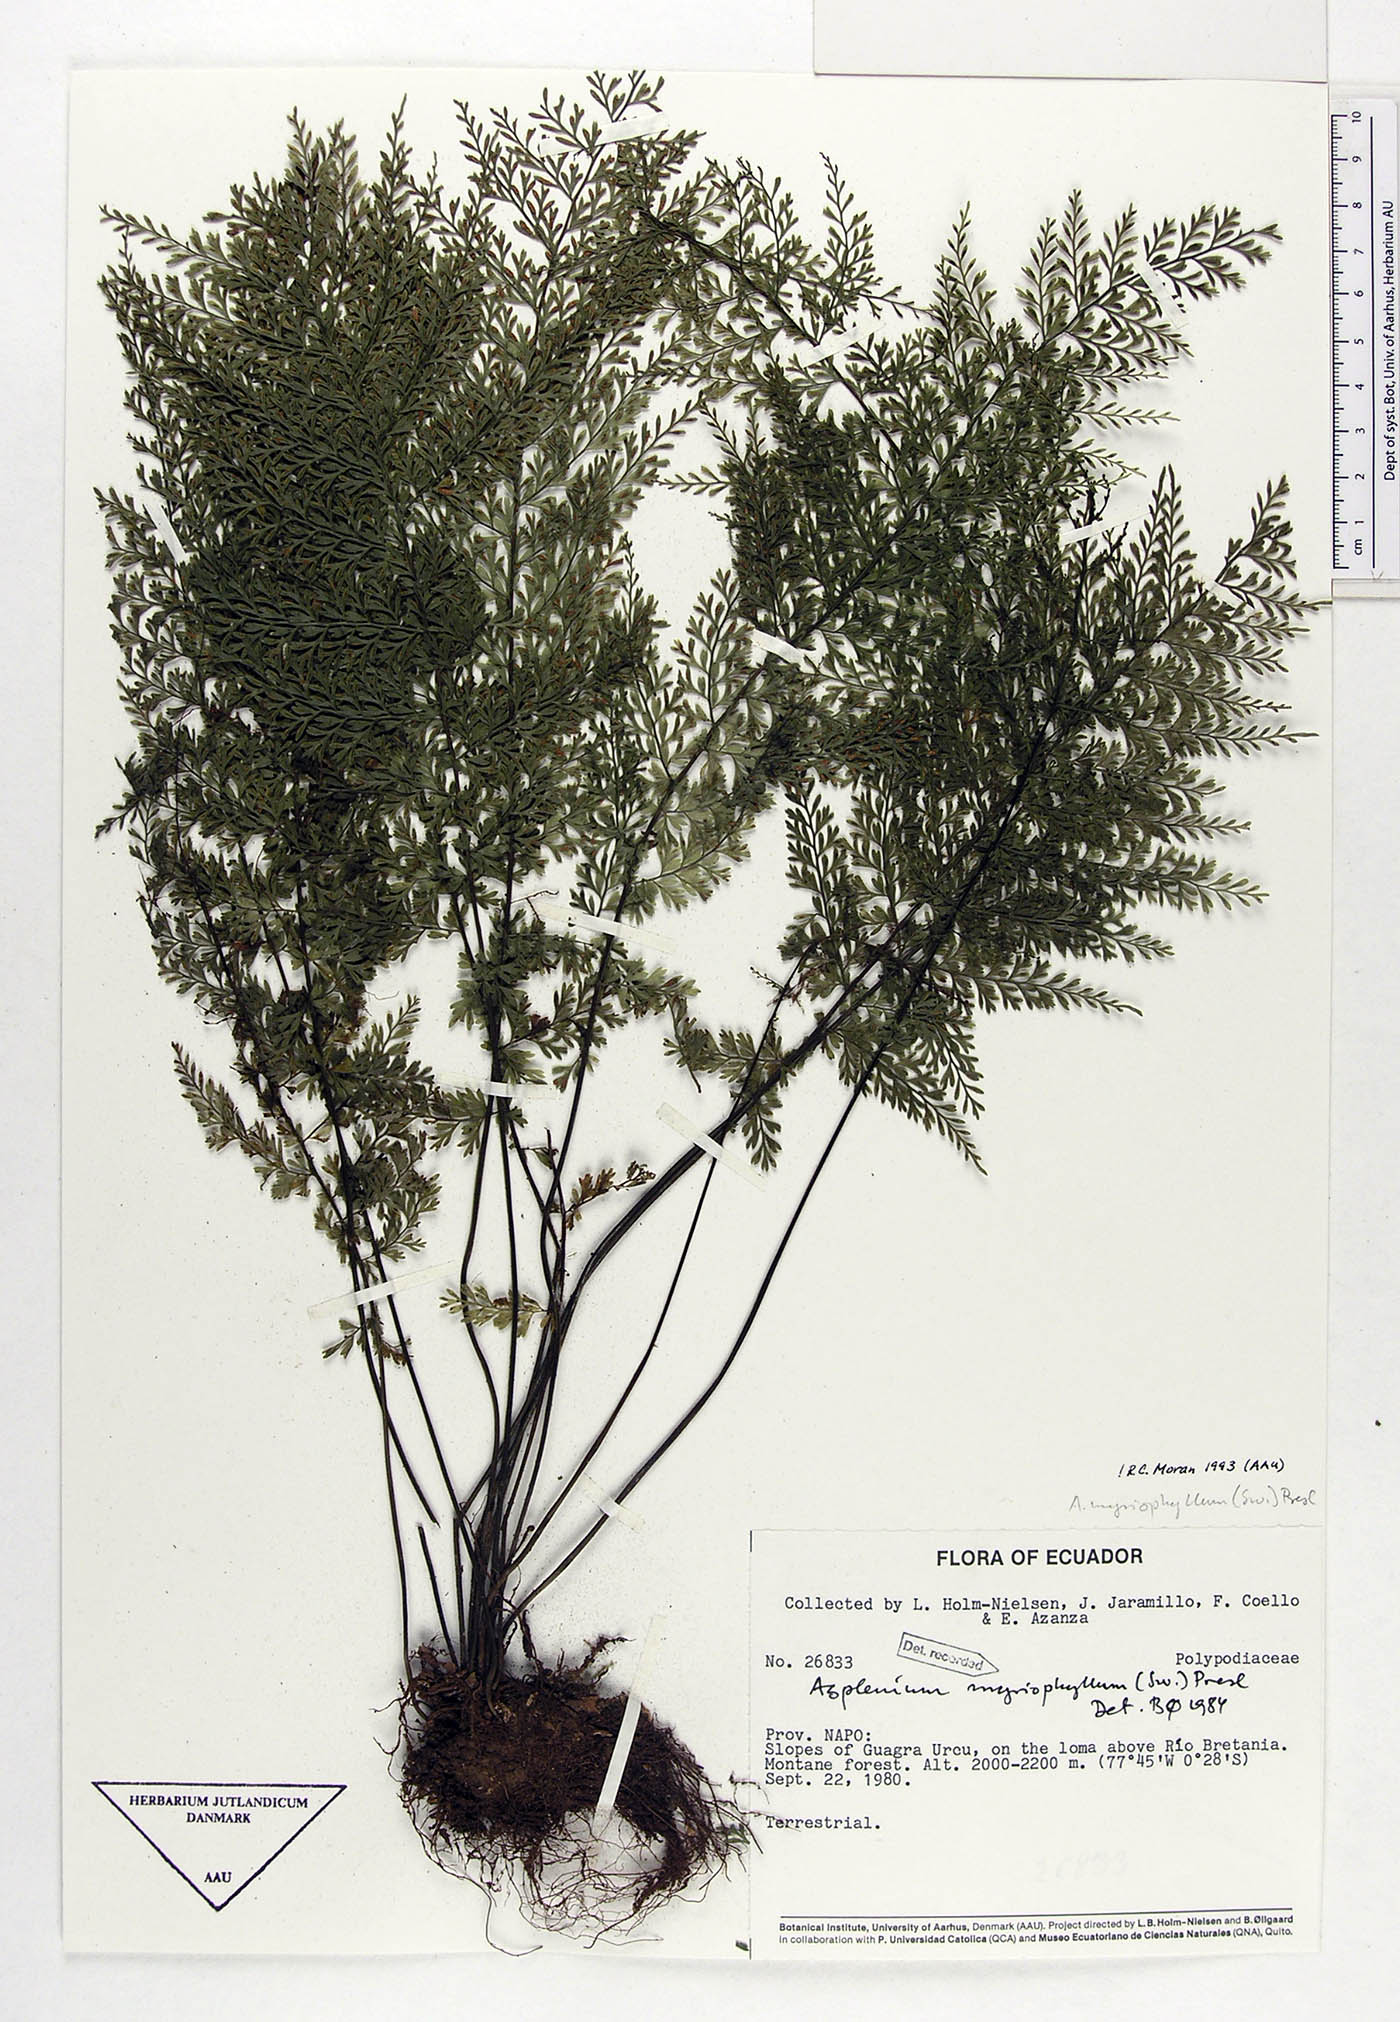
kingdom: Plantae
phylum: Tracheophyta
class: Polypodiopsida
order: Polypodiales
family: Aspleniaceae
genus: Asplenium
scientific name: Asplenium myriophyllum
